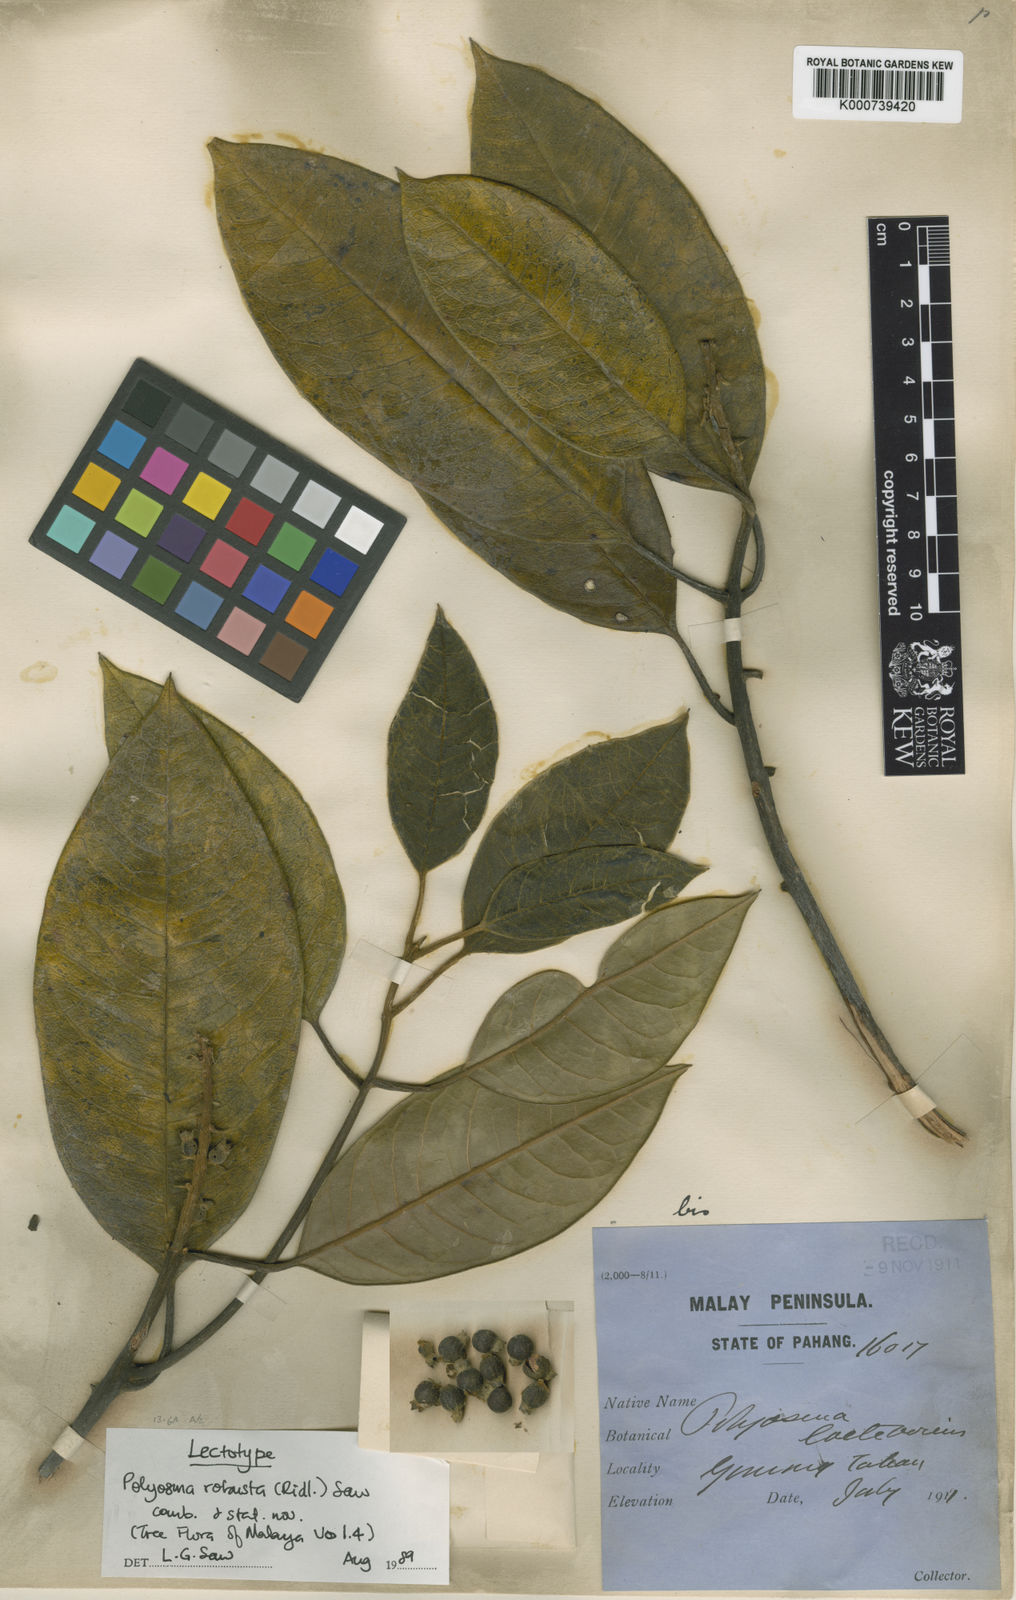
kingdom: Plantae
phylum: Tracheophyta
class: Magnoliopsida
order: Escalloniales
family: Escalloniaceae
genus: Polyosma
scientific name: Polyosma ridleyi
